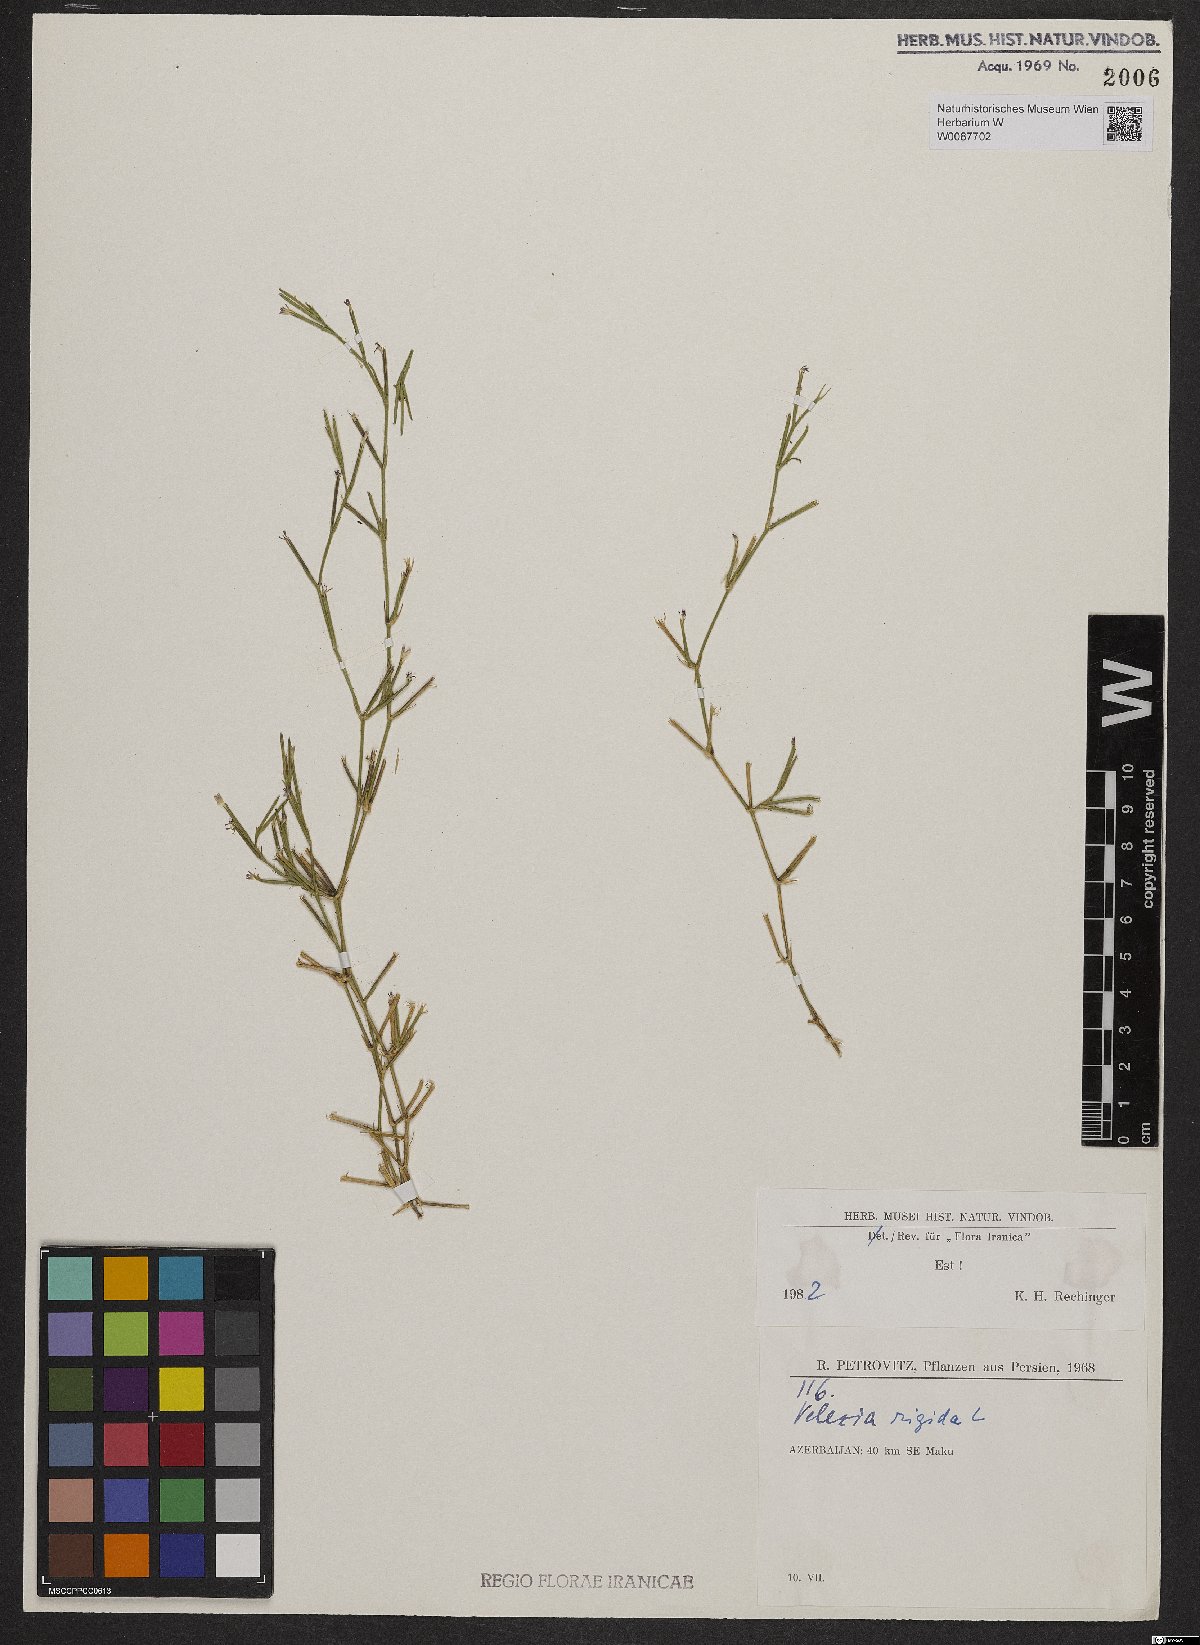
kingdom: Plantae
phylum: Tracheophyta
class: Magnoliopsida
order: Caryophyllales
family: Caryophyllaceae
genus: Dianthus
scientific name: Dianthus nudiflorus
